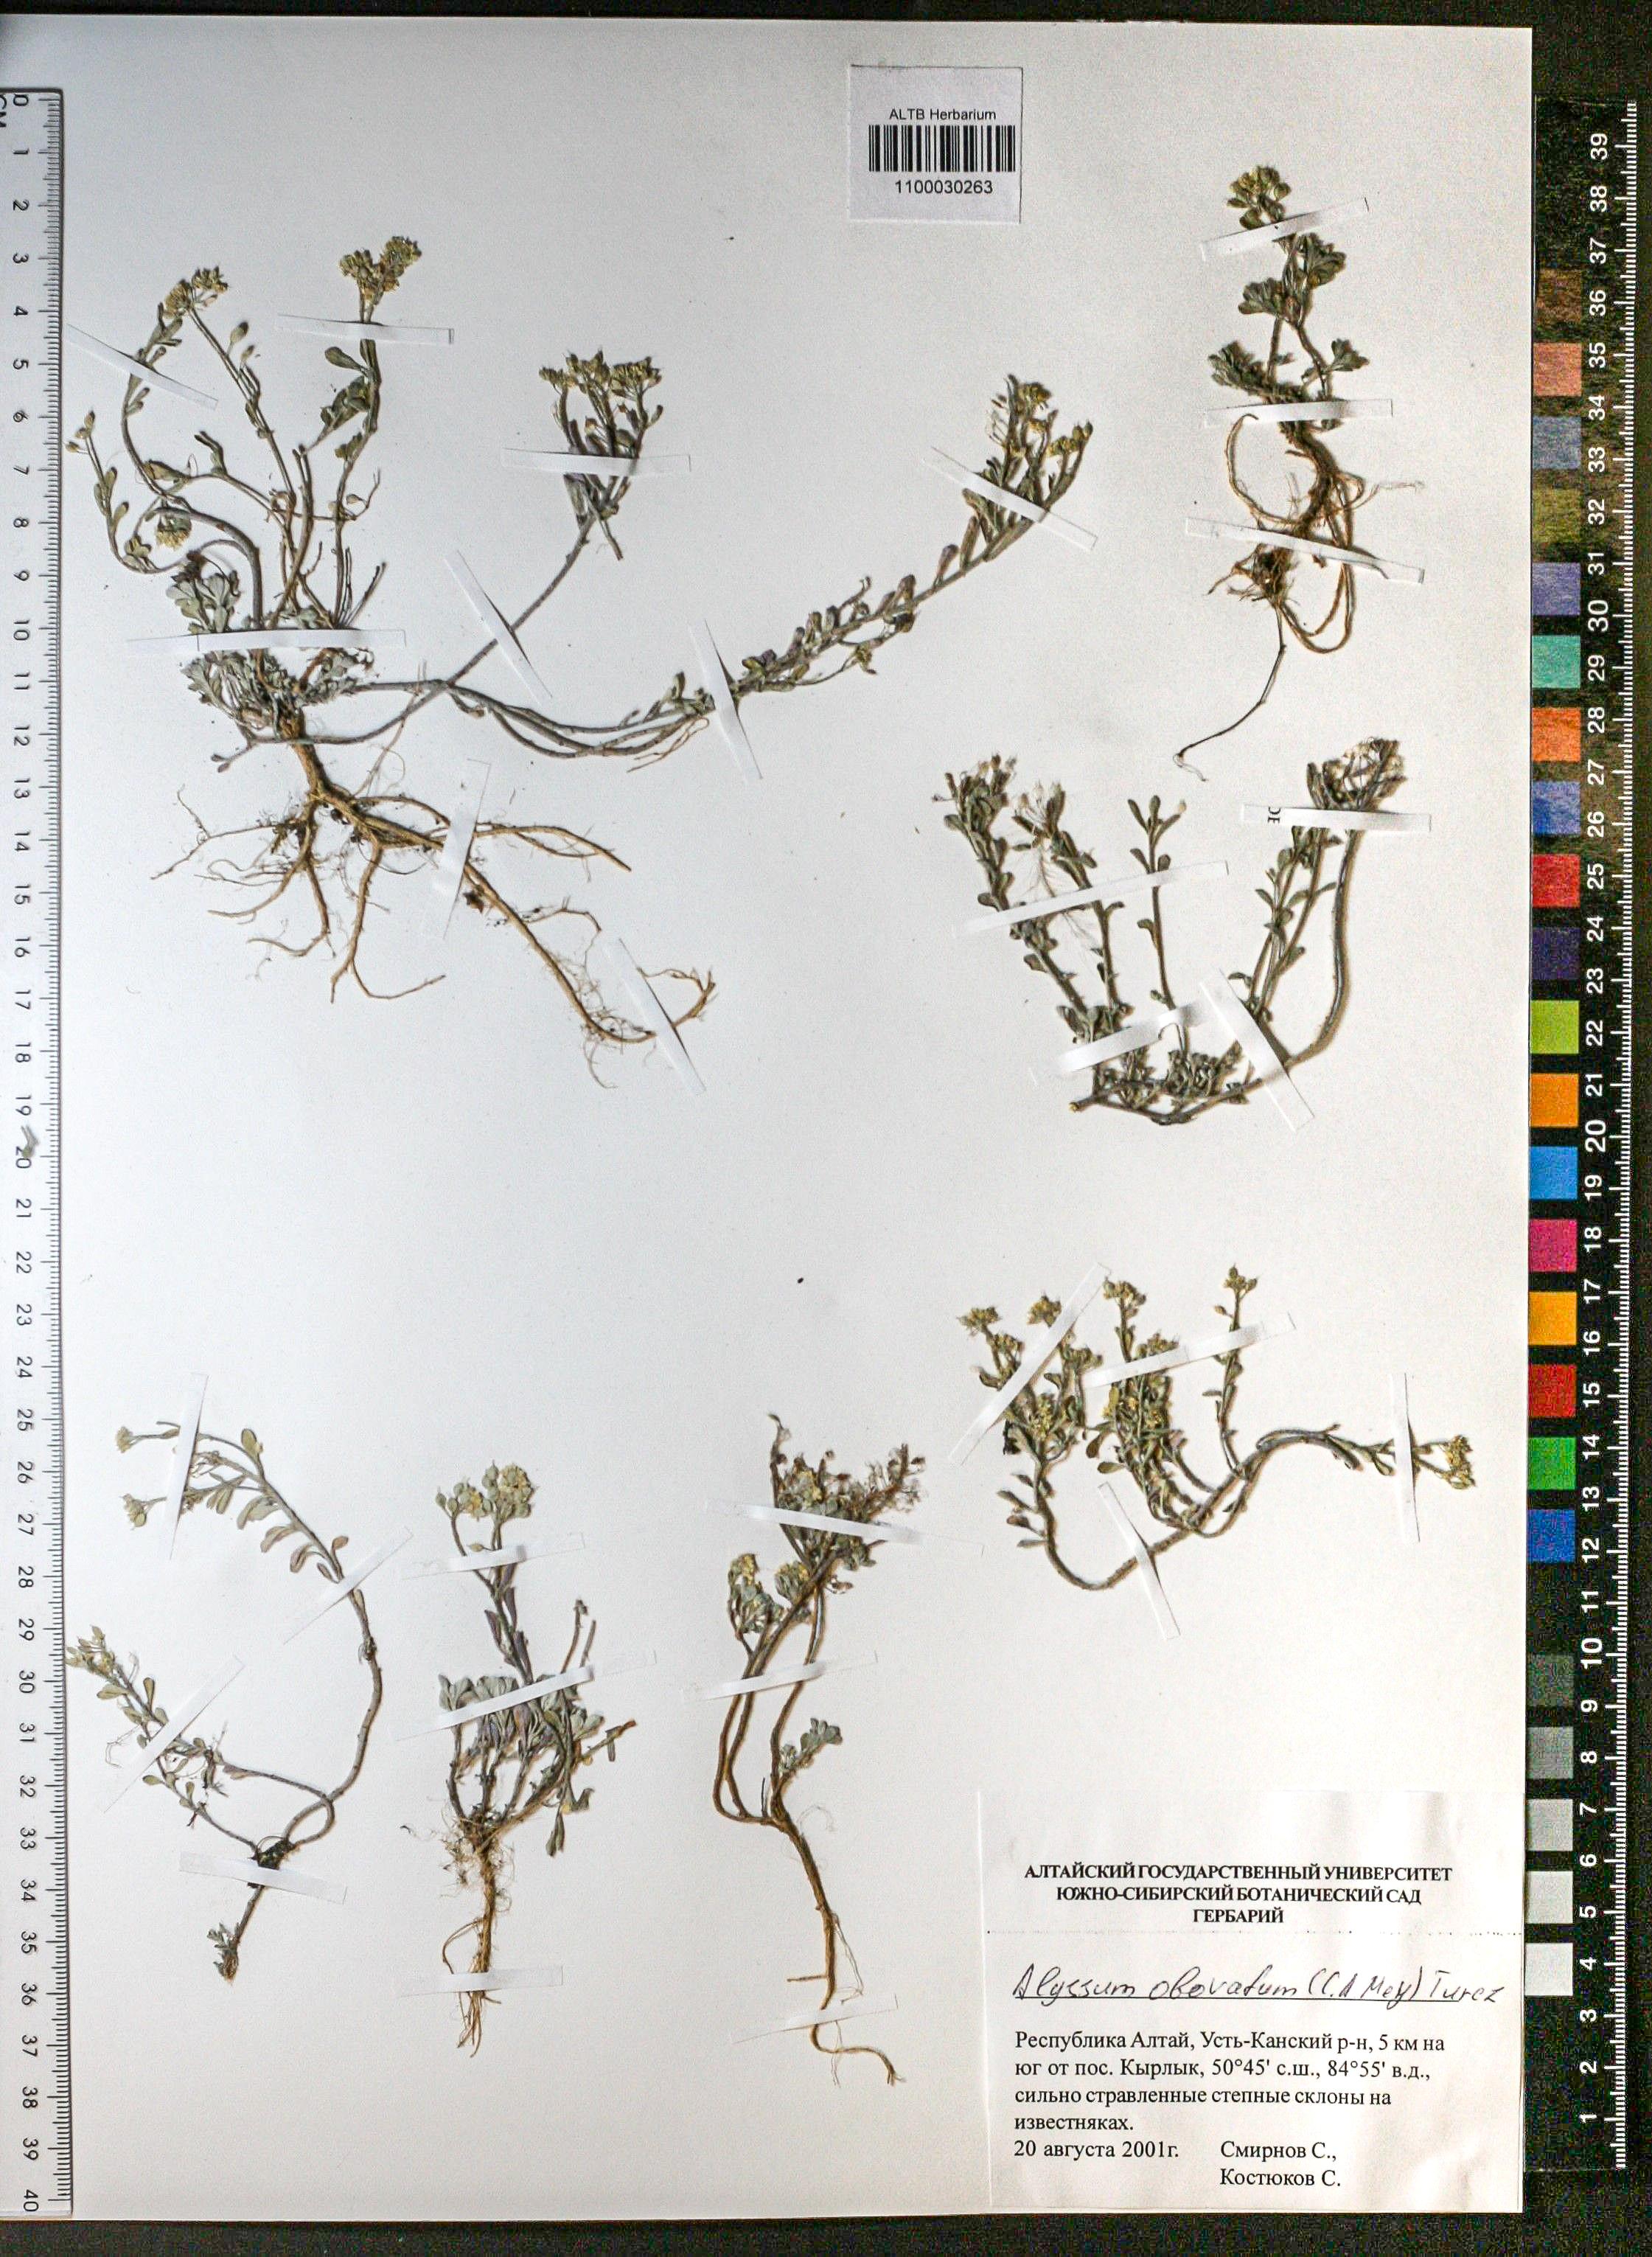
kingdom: Plantae
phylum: Tracheophyta
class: Magnoliopsida
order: Brassicales
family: Brassicaceae
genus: Odontarrhena
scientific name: Odontarrhena obovata
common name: American alyssum
